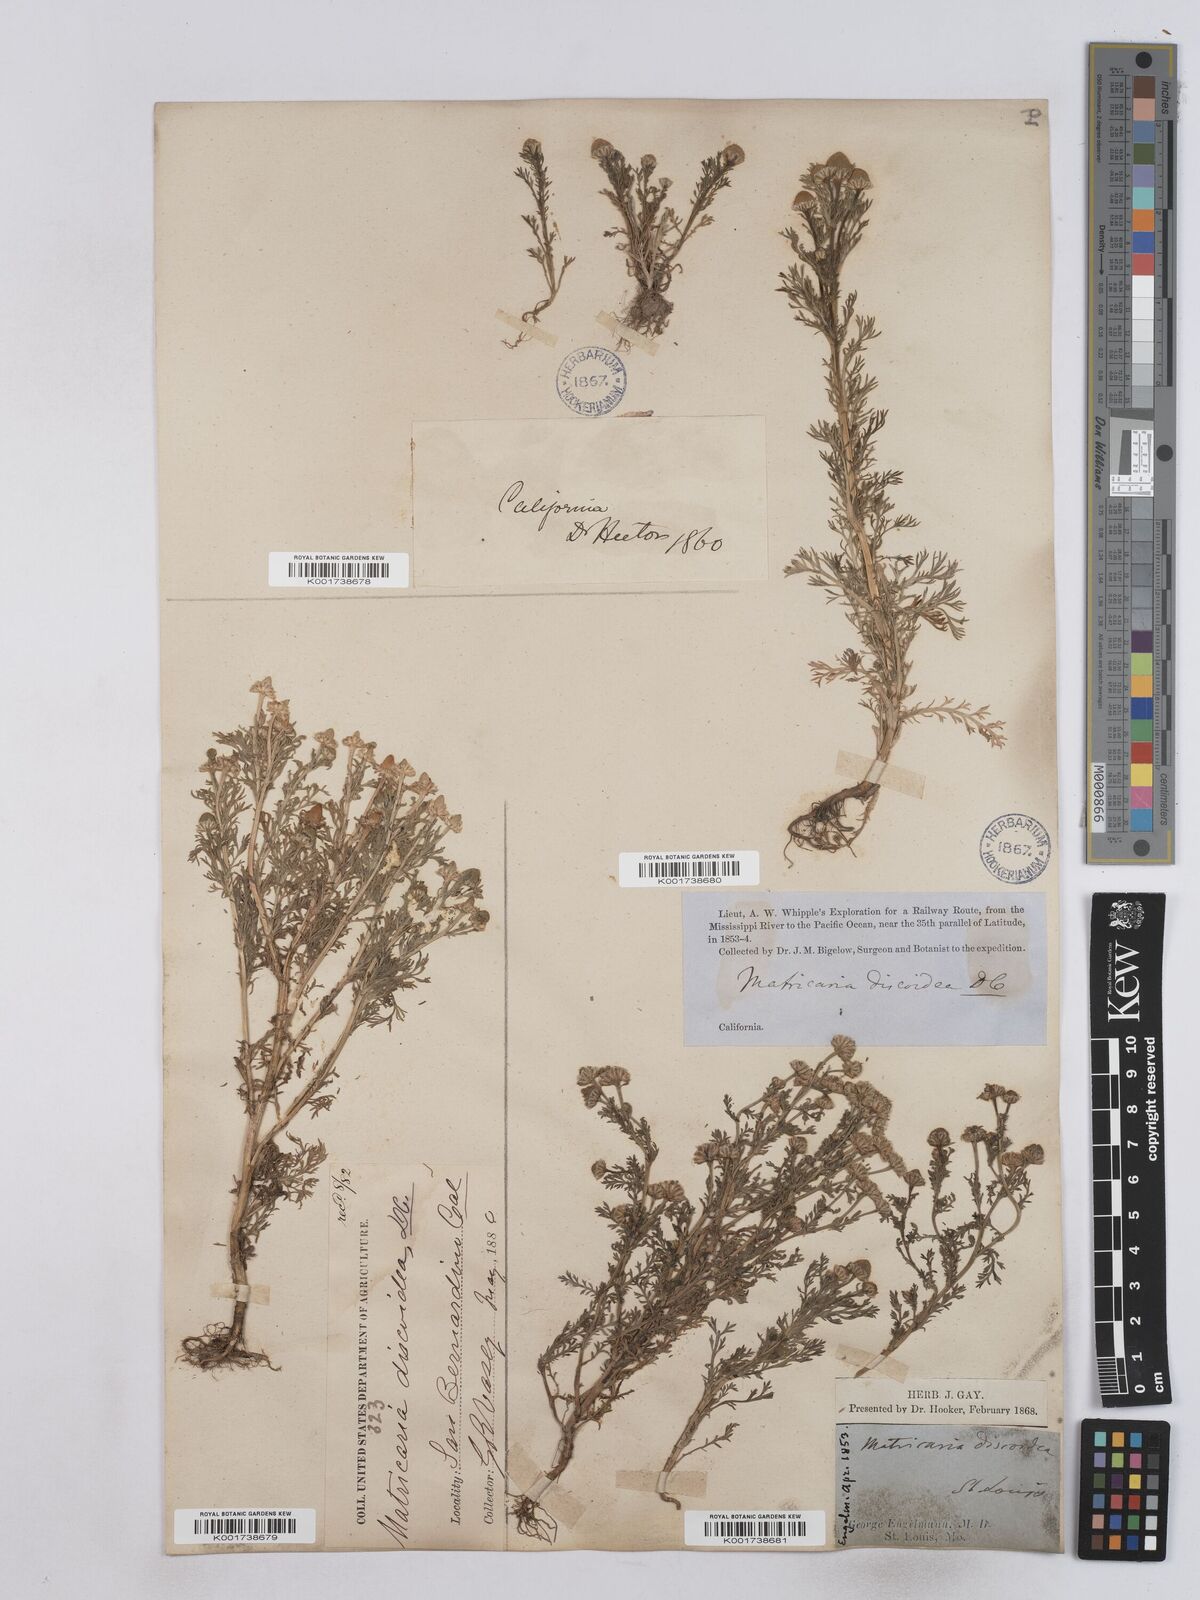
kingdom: Plantae
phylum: Tracheophyta
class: Magnoliopsida
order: Asterales
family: Asteraceae
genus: Matricaria
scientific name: Matricaria
